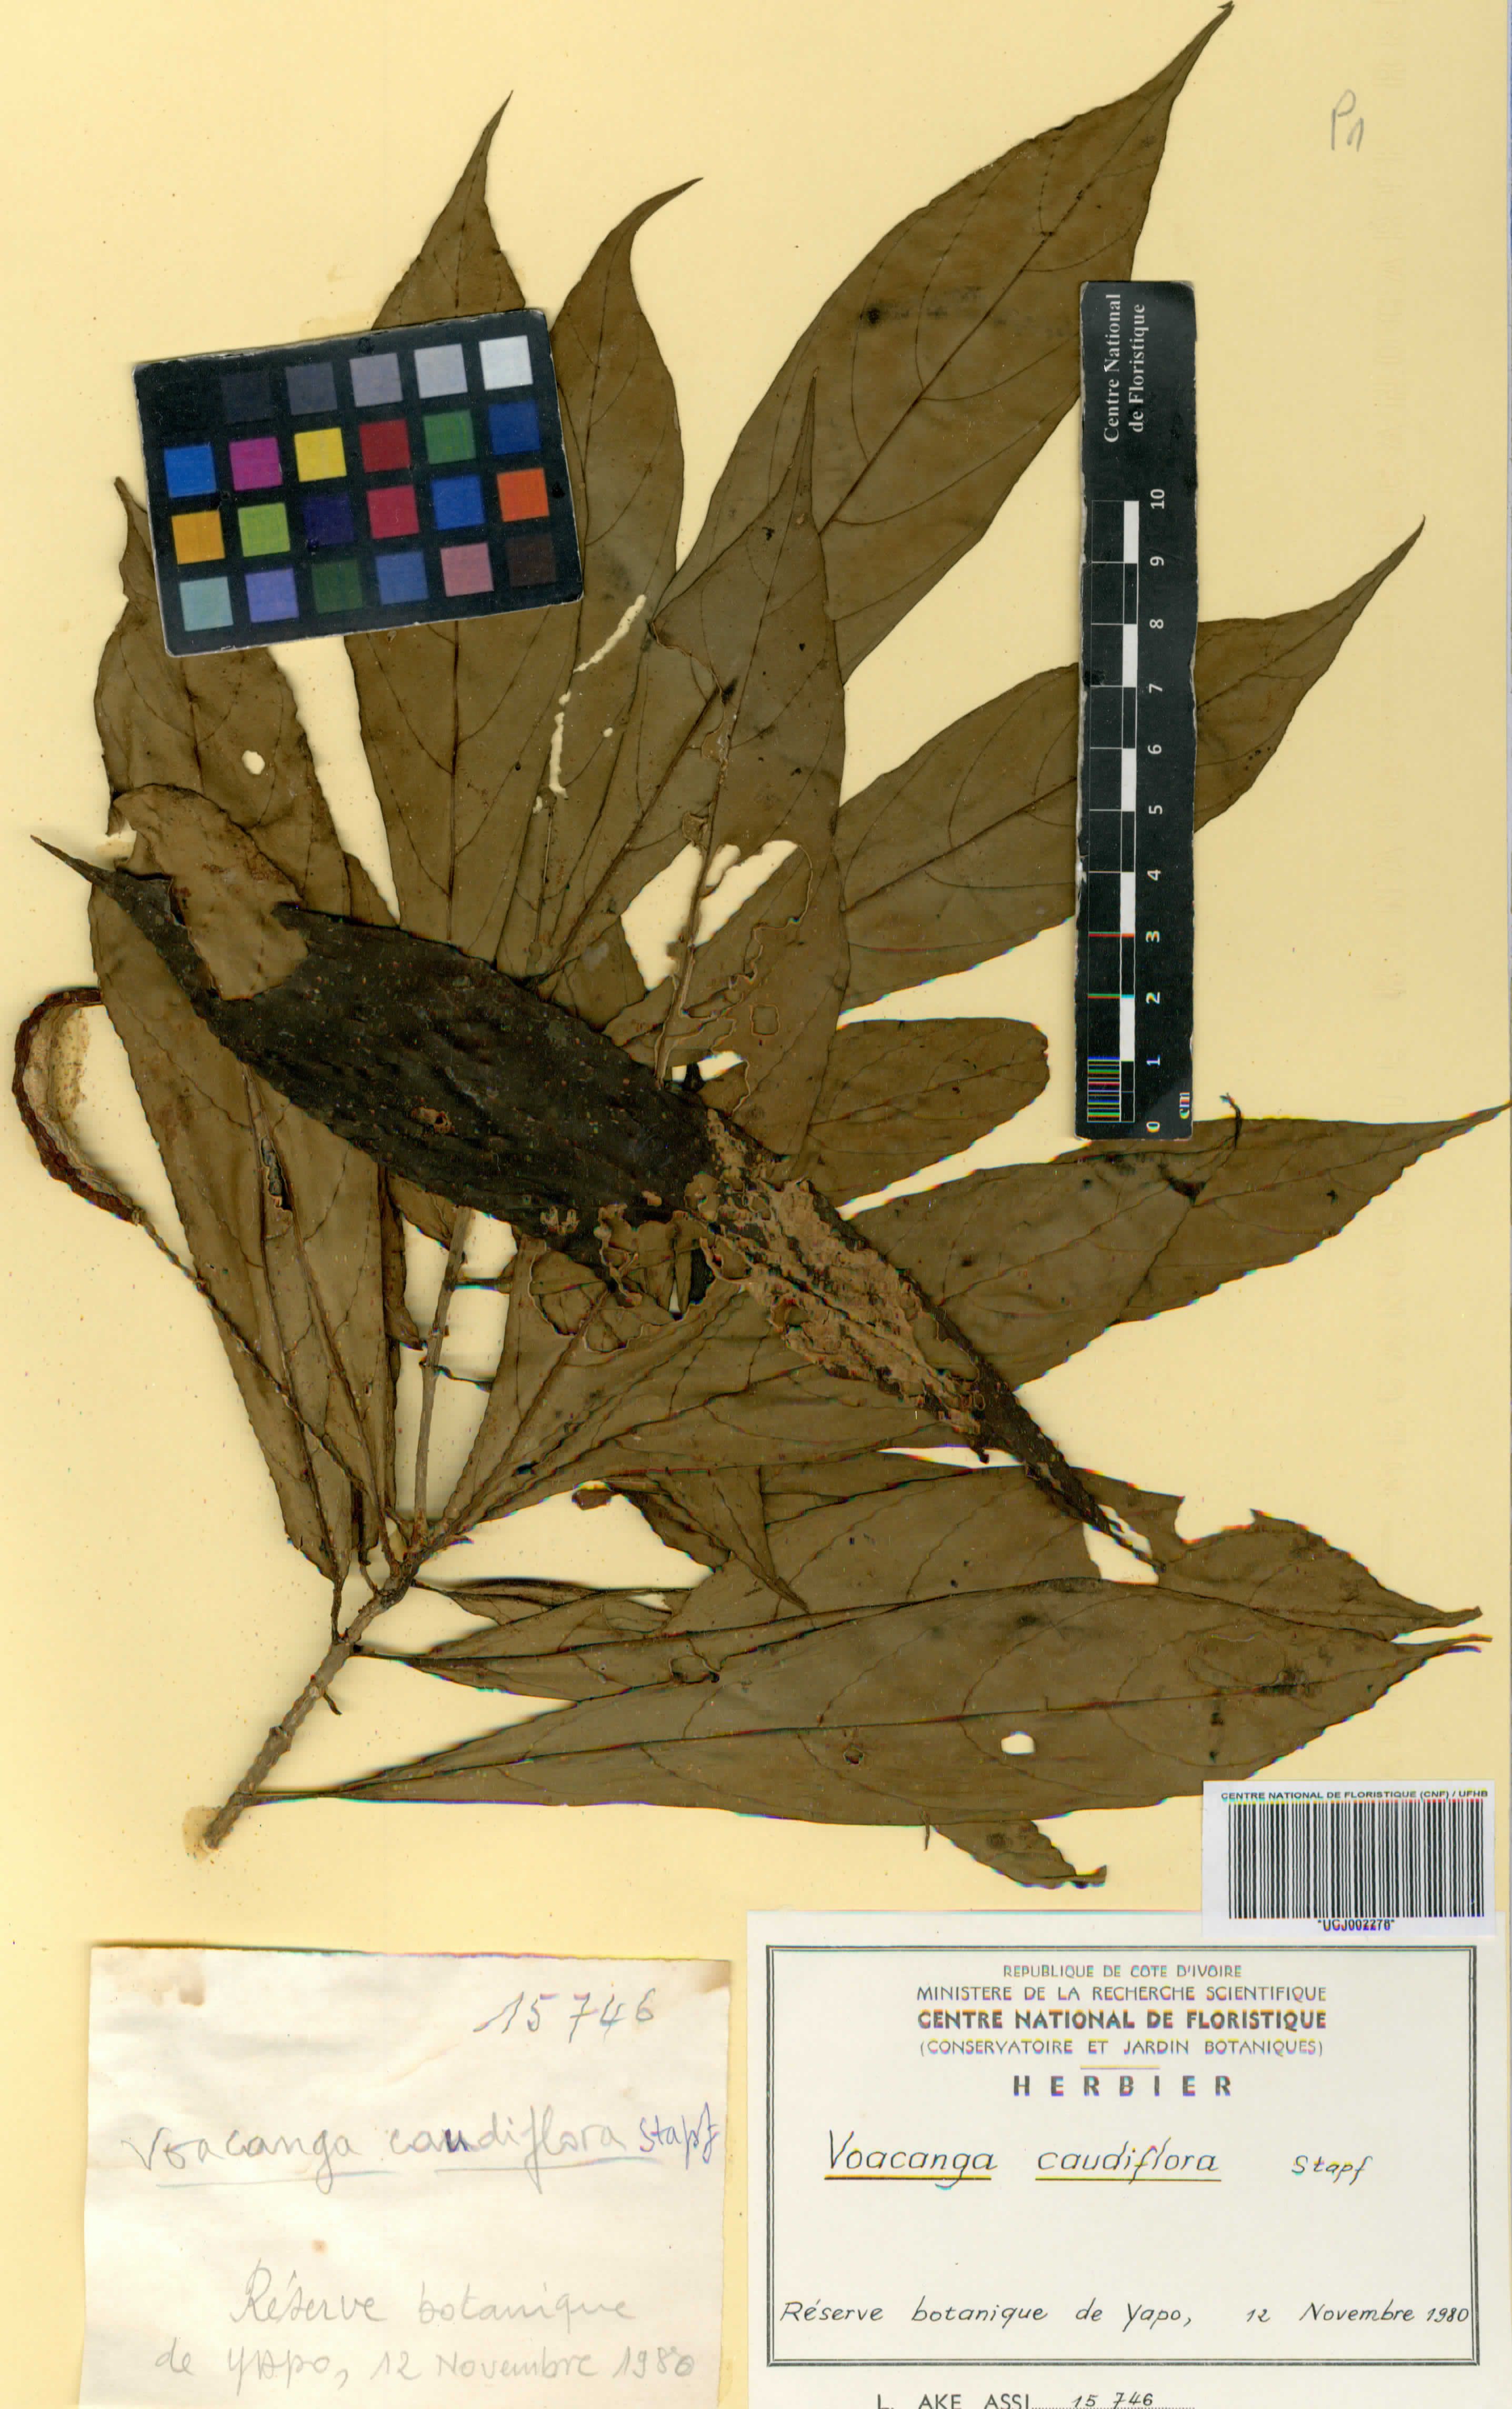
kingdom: Plantae
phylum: Tracheophyta
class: Magnoliopsida
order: Gentianales
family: Apocynaceae
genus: Voacanga
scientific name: Voacanga caudiflora
